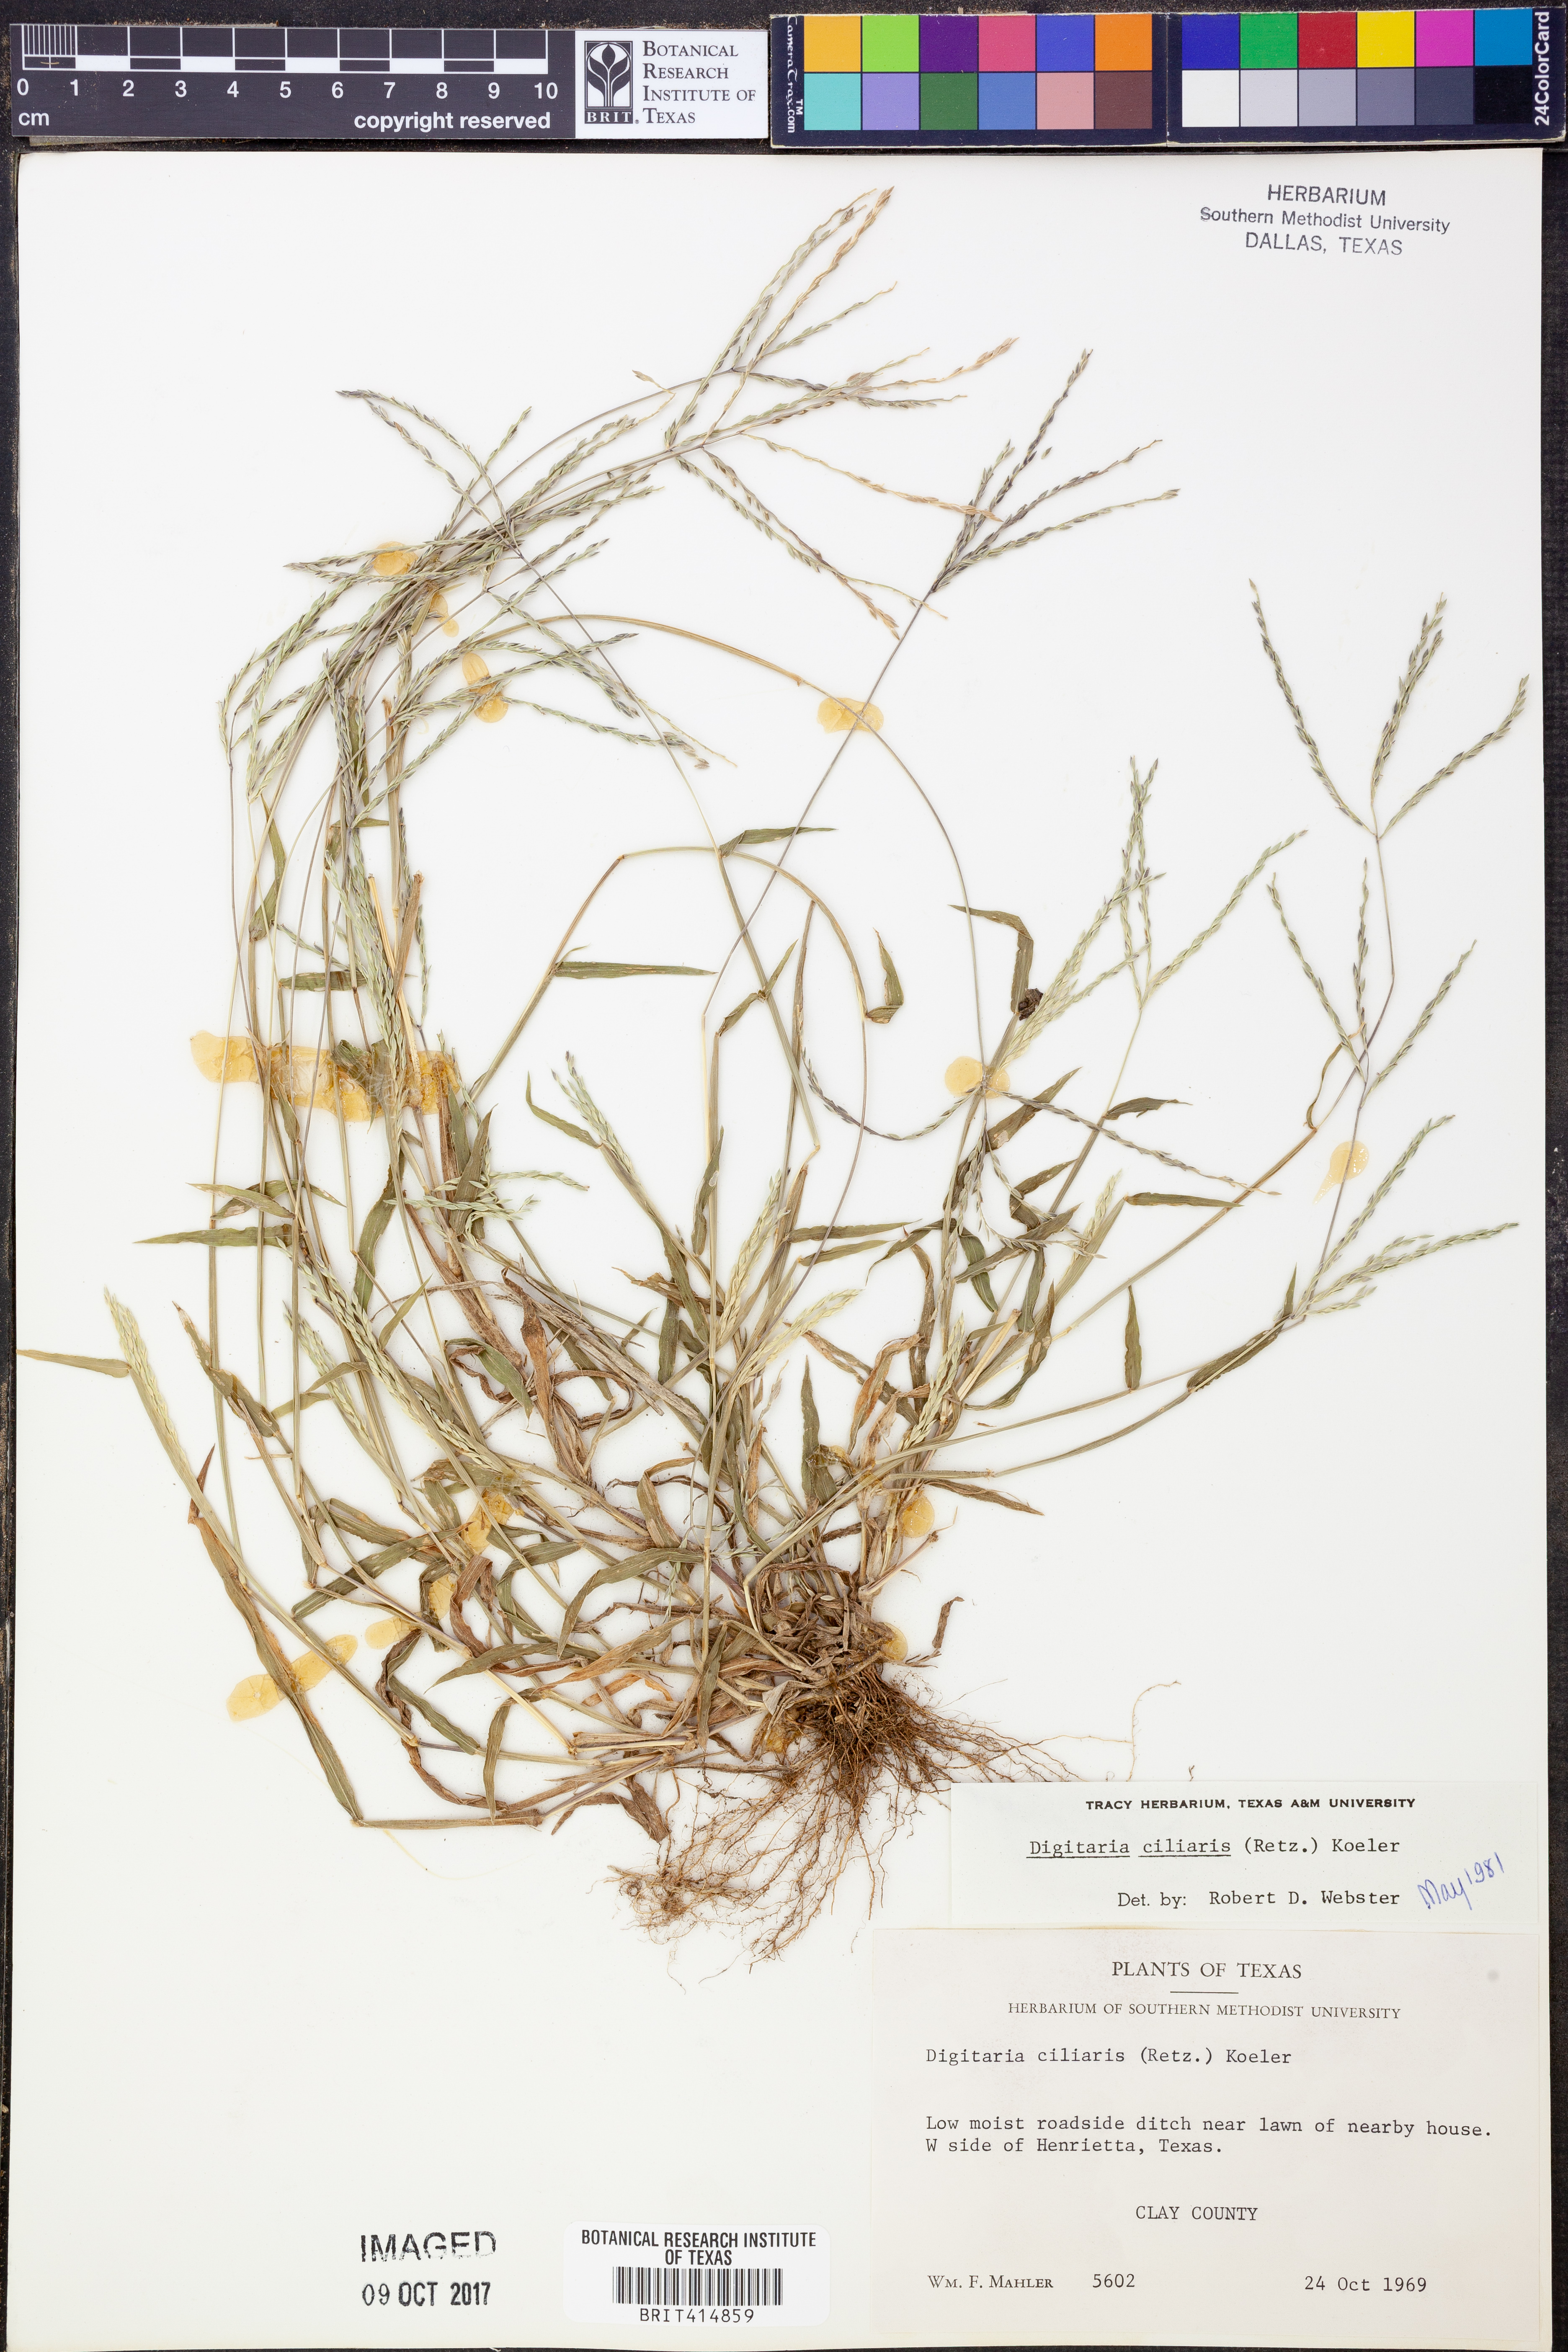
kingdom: Plantae
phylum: Tracheophyta
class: Liliopsida
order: Poales
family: Poaceae
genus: Digitaria
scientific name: Digitaria ciliaris
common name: Tropical finger-grass
